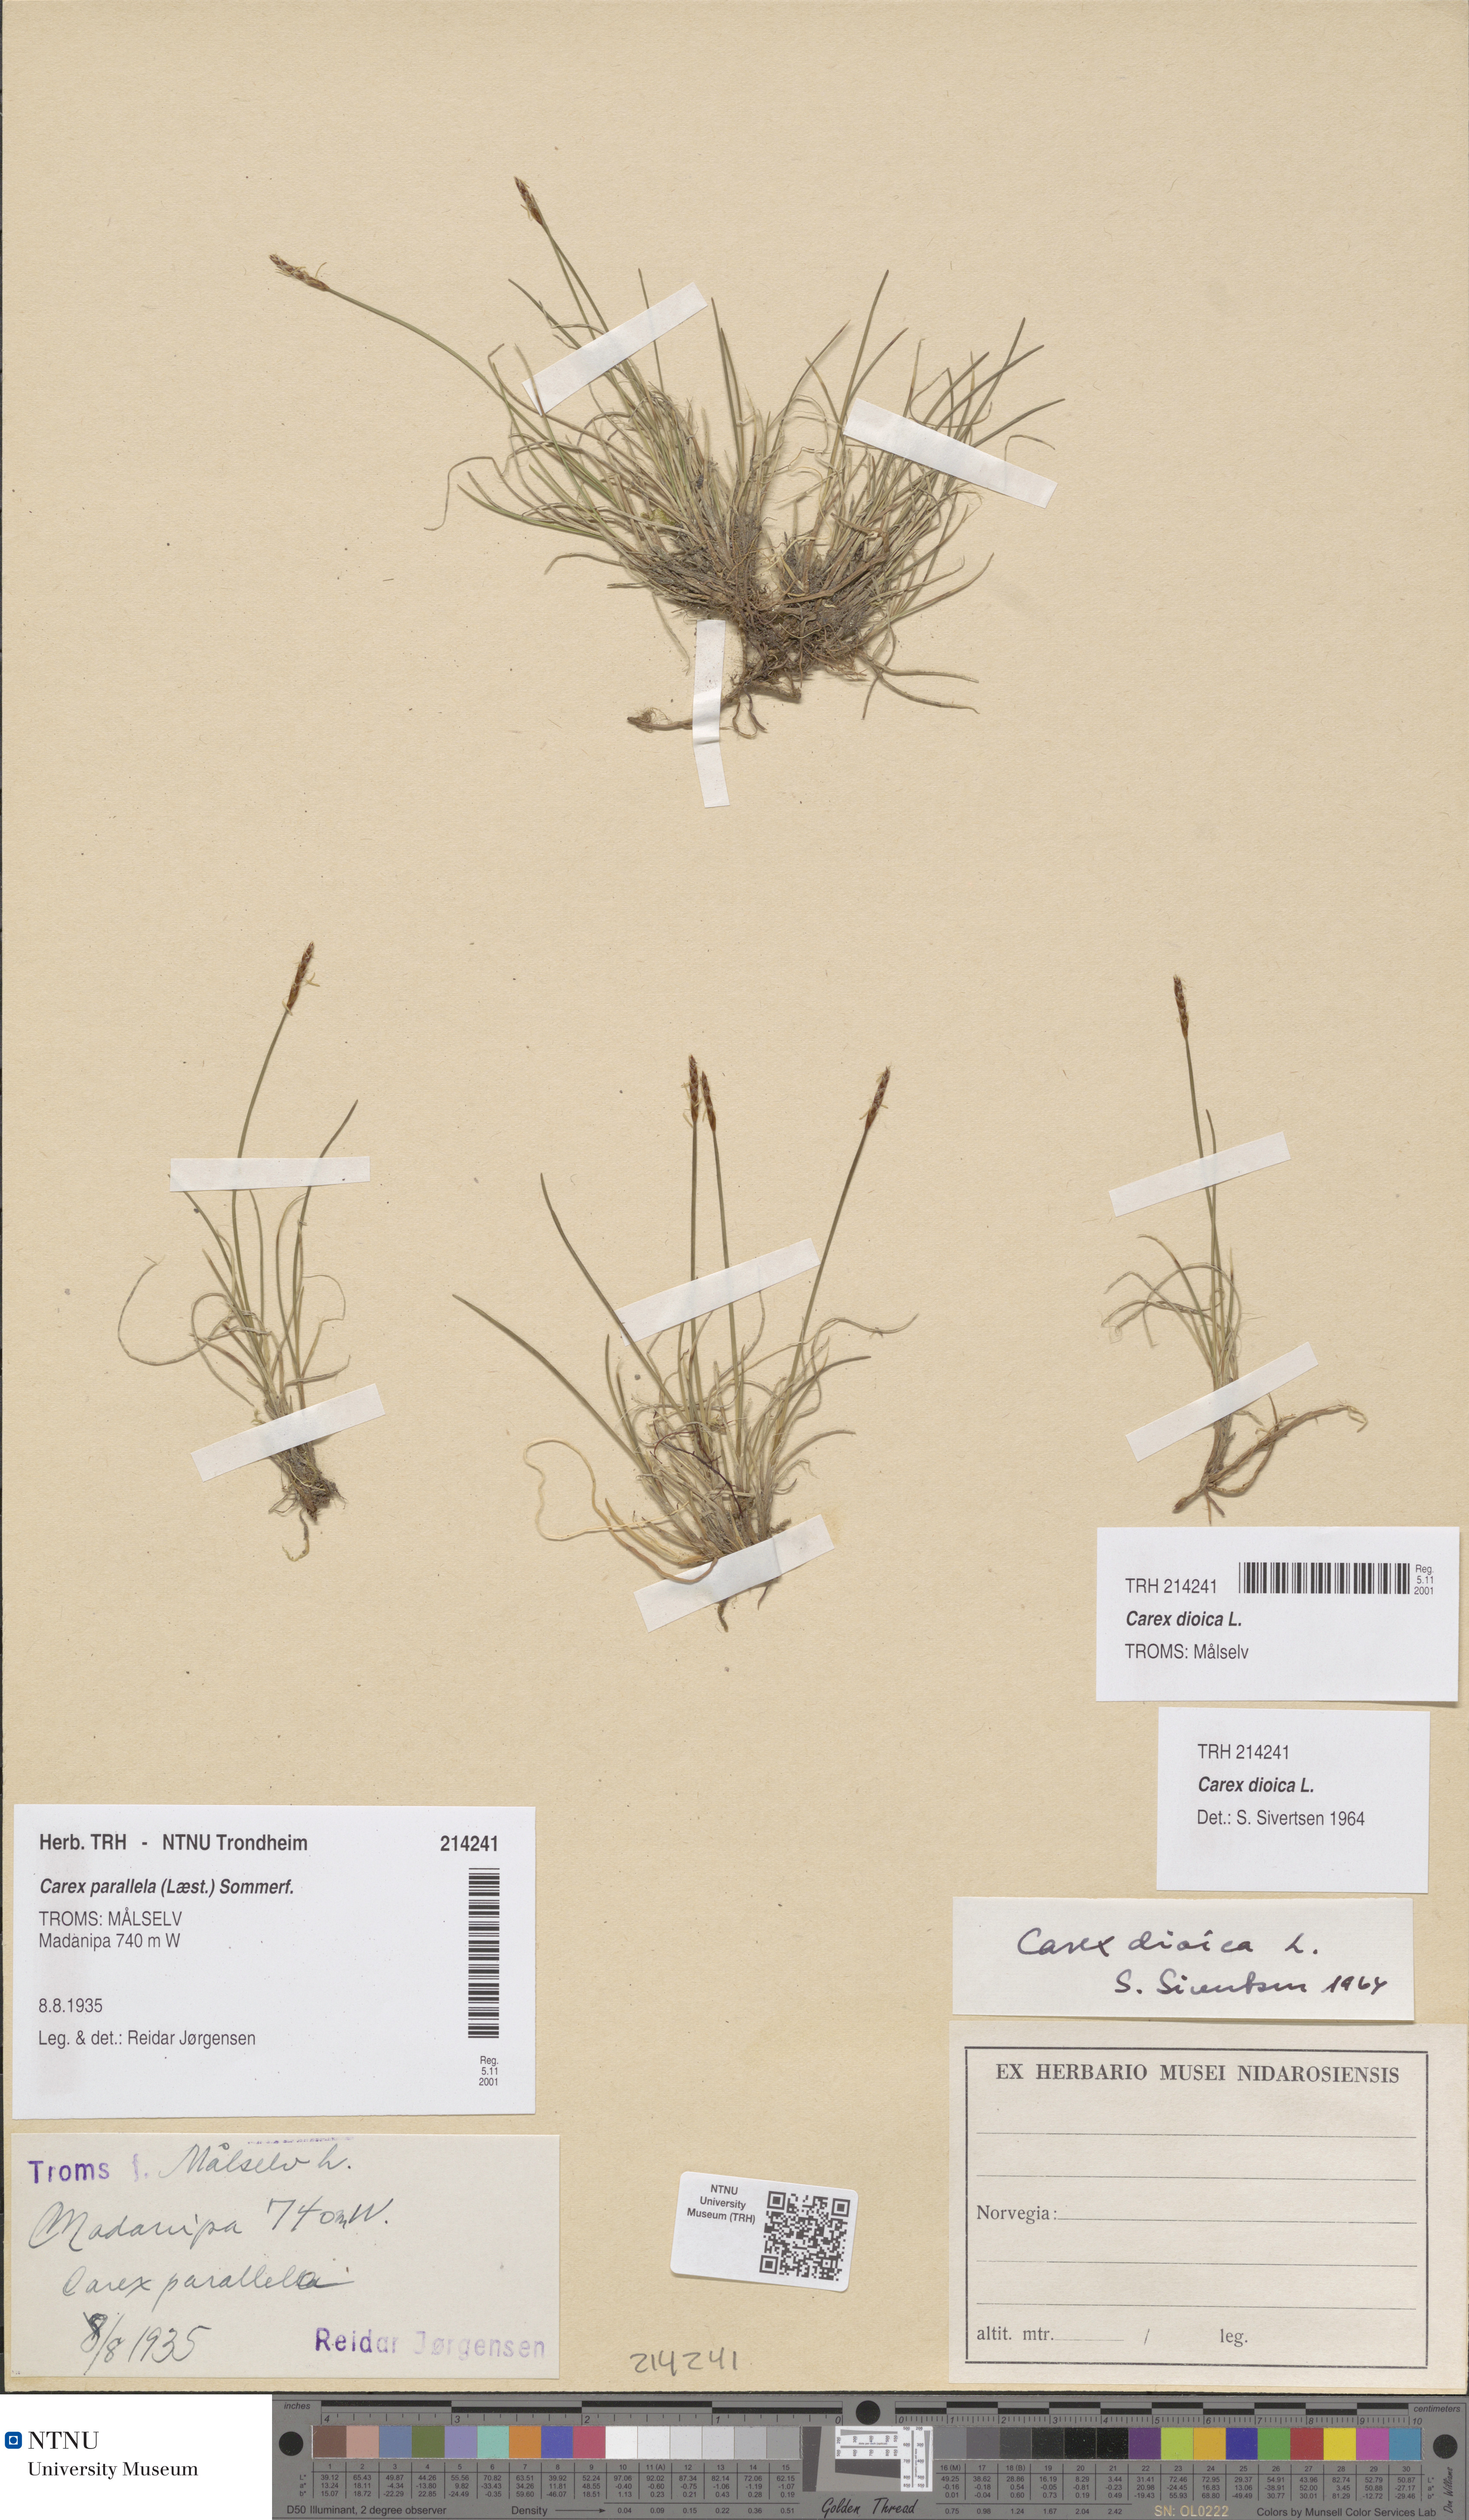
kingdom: Plantae
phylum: Tracheophyta
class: Liliopsida
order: Poales
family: Cyperaceae
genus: Carex
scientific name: Carex dioica
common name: Dioecious sedge
